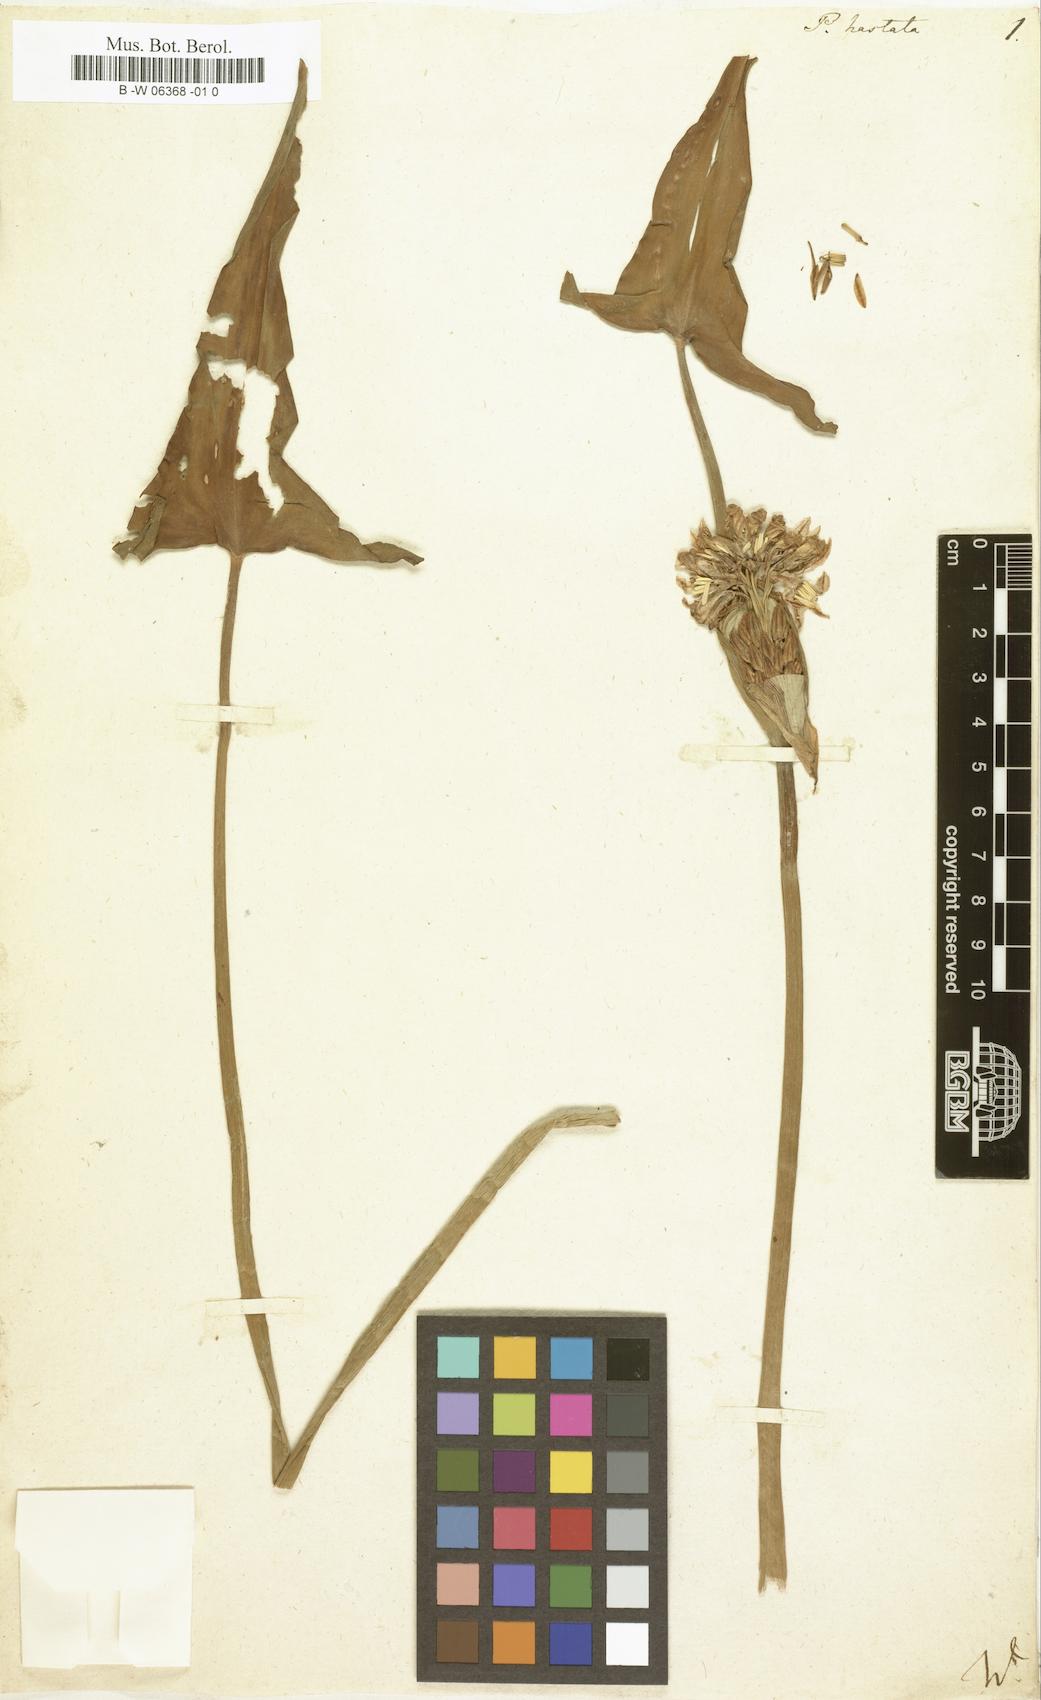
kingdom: Plantae
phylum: Tracheophyta
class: Liliopsida
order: Commelinales
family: Pontederiaceae
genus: Pontederia
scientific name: Pontederia hastata
